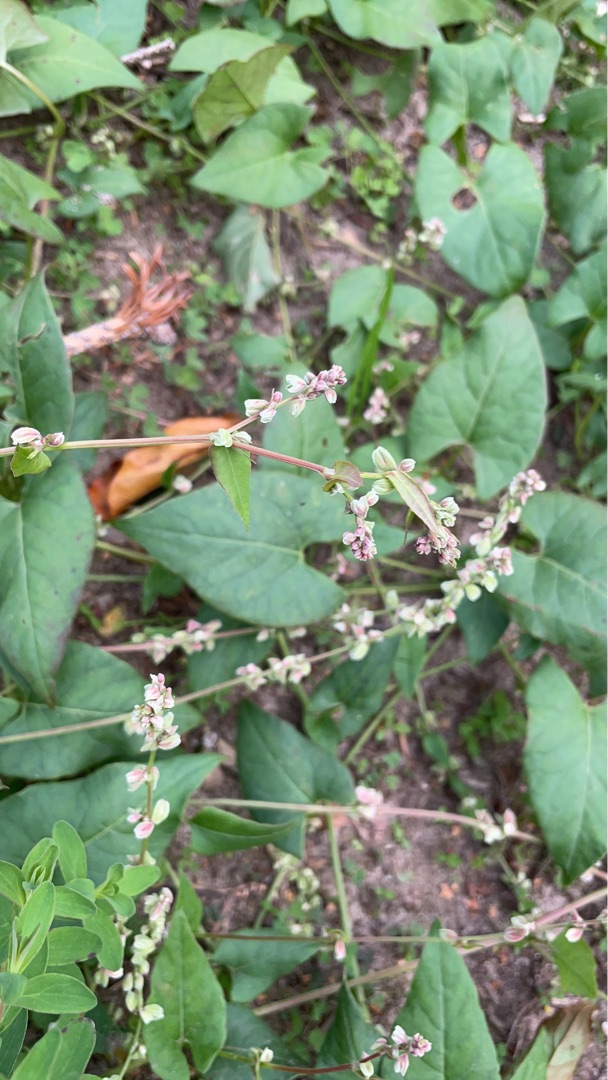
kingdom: Plantae
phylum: Tracheophyta
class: Magnoliopsida
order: Caryophyllales
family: Polygonaceae
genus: Fallopia
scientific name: Fallopia convolvulus
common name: Snerle-pileurt
